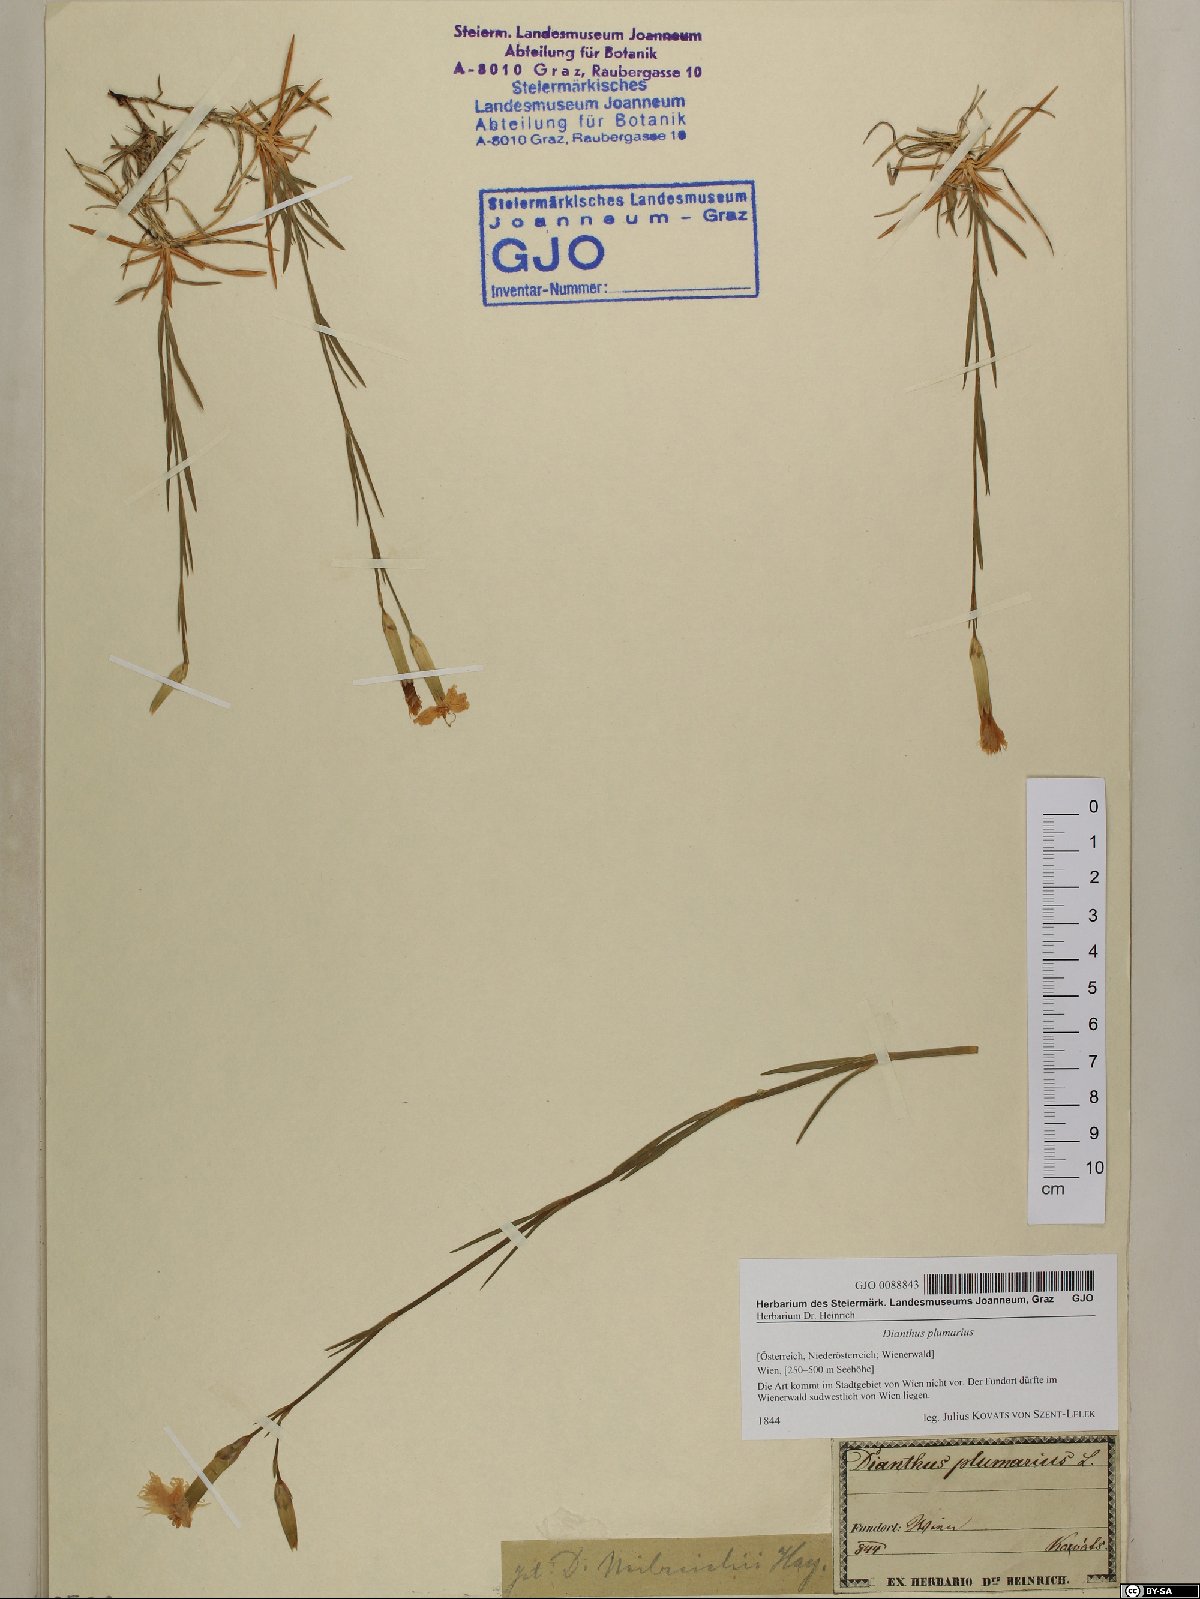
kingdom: Plantae
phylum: Tracheophyta
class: Magnoliopsida
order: Caryophyllales
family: Caryophyllaceae
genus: Dianthus
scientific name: Dianthus plumarius
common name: Pink
